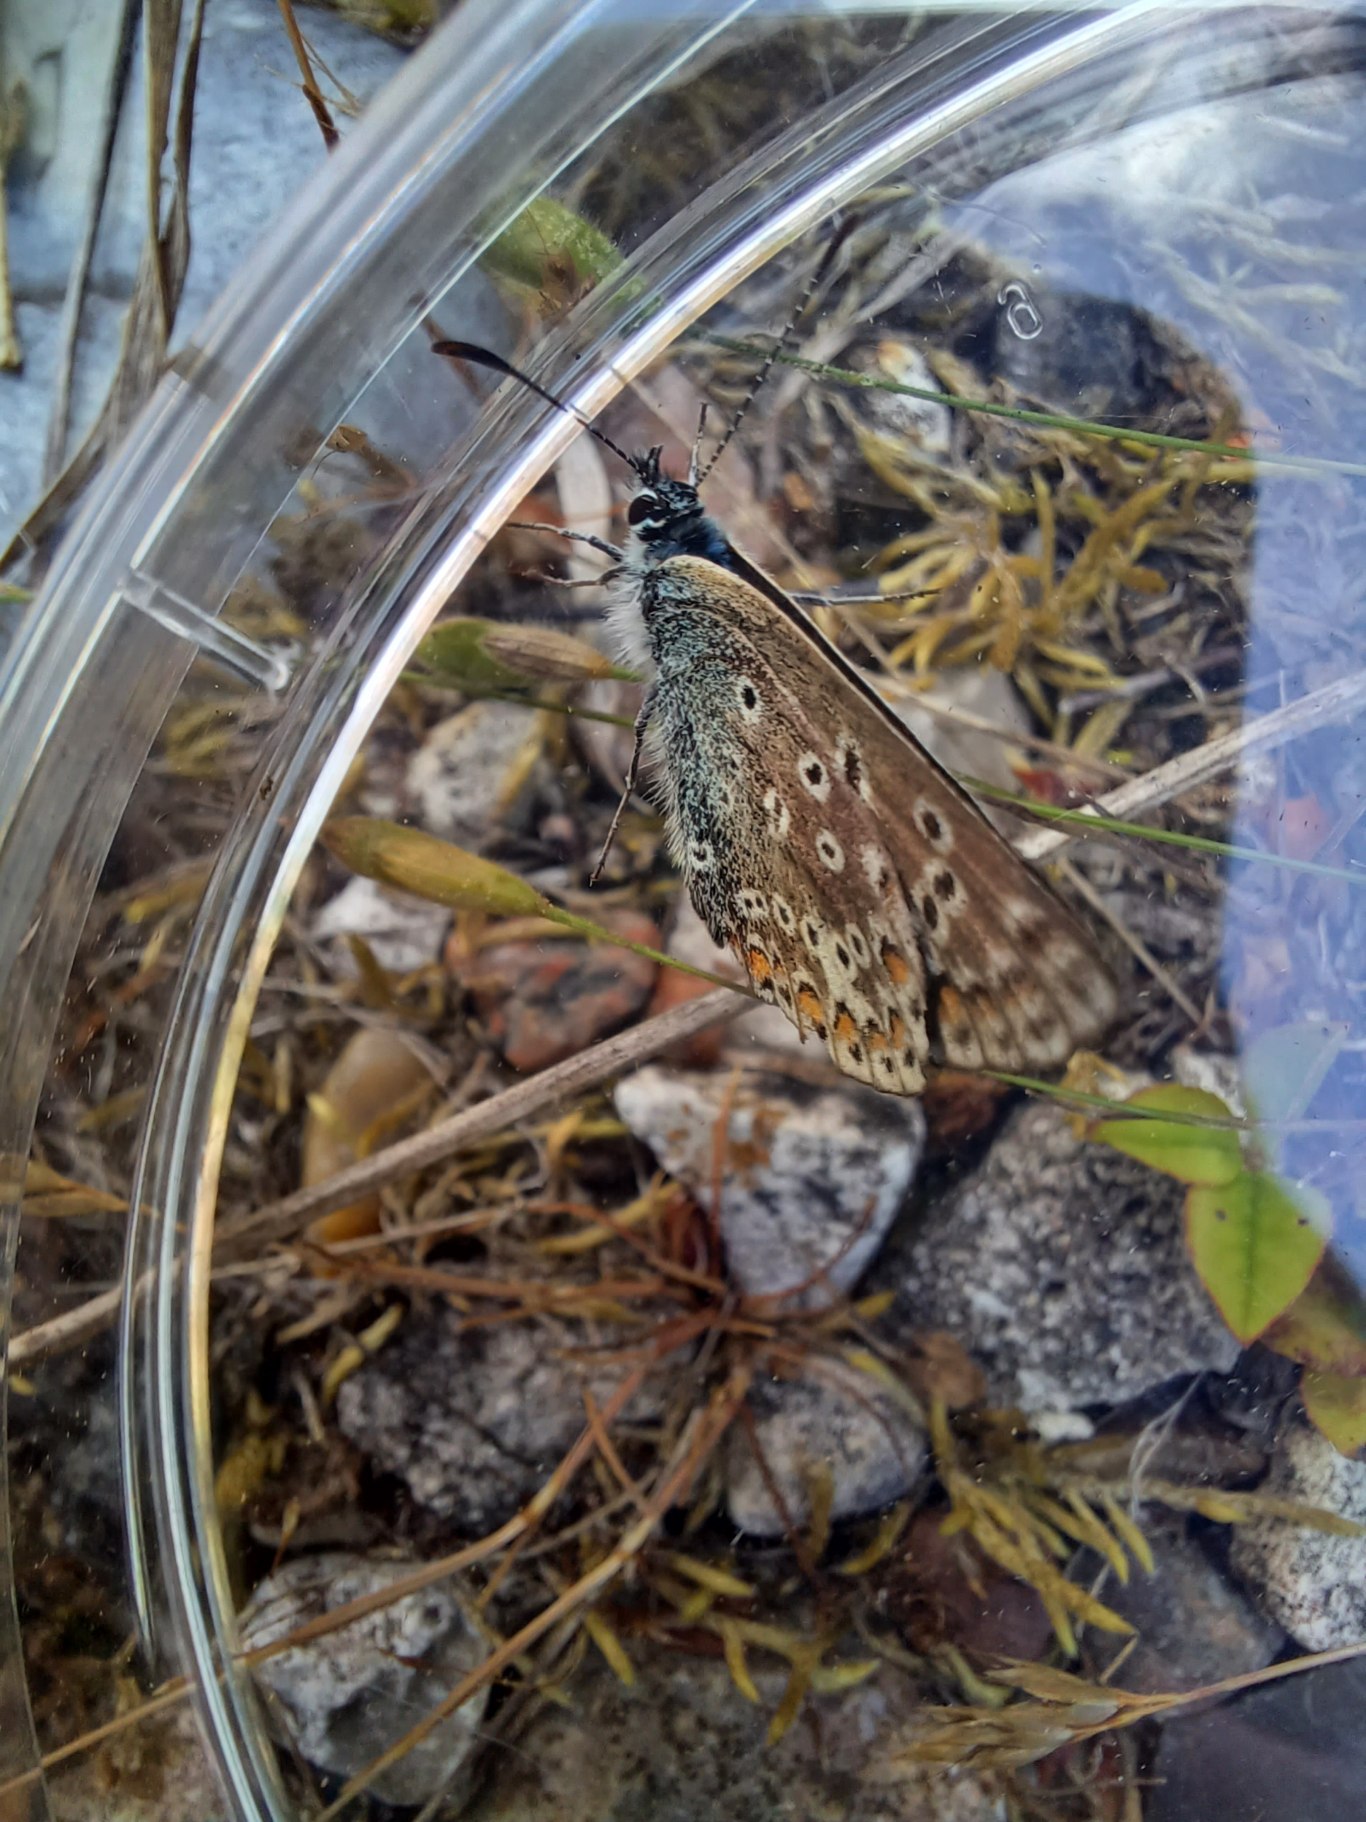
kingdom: Animalia
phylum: Arthropoda
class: Insecta
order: Lepidoptera
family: Lycaenidae
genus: Polyommatus
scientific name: Polyommatus icarus
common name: Almindelig blåfugl
